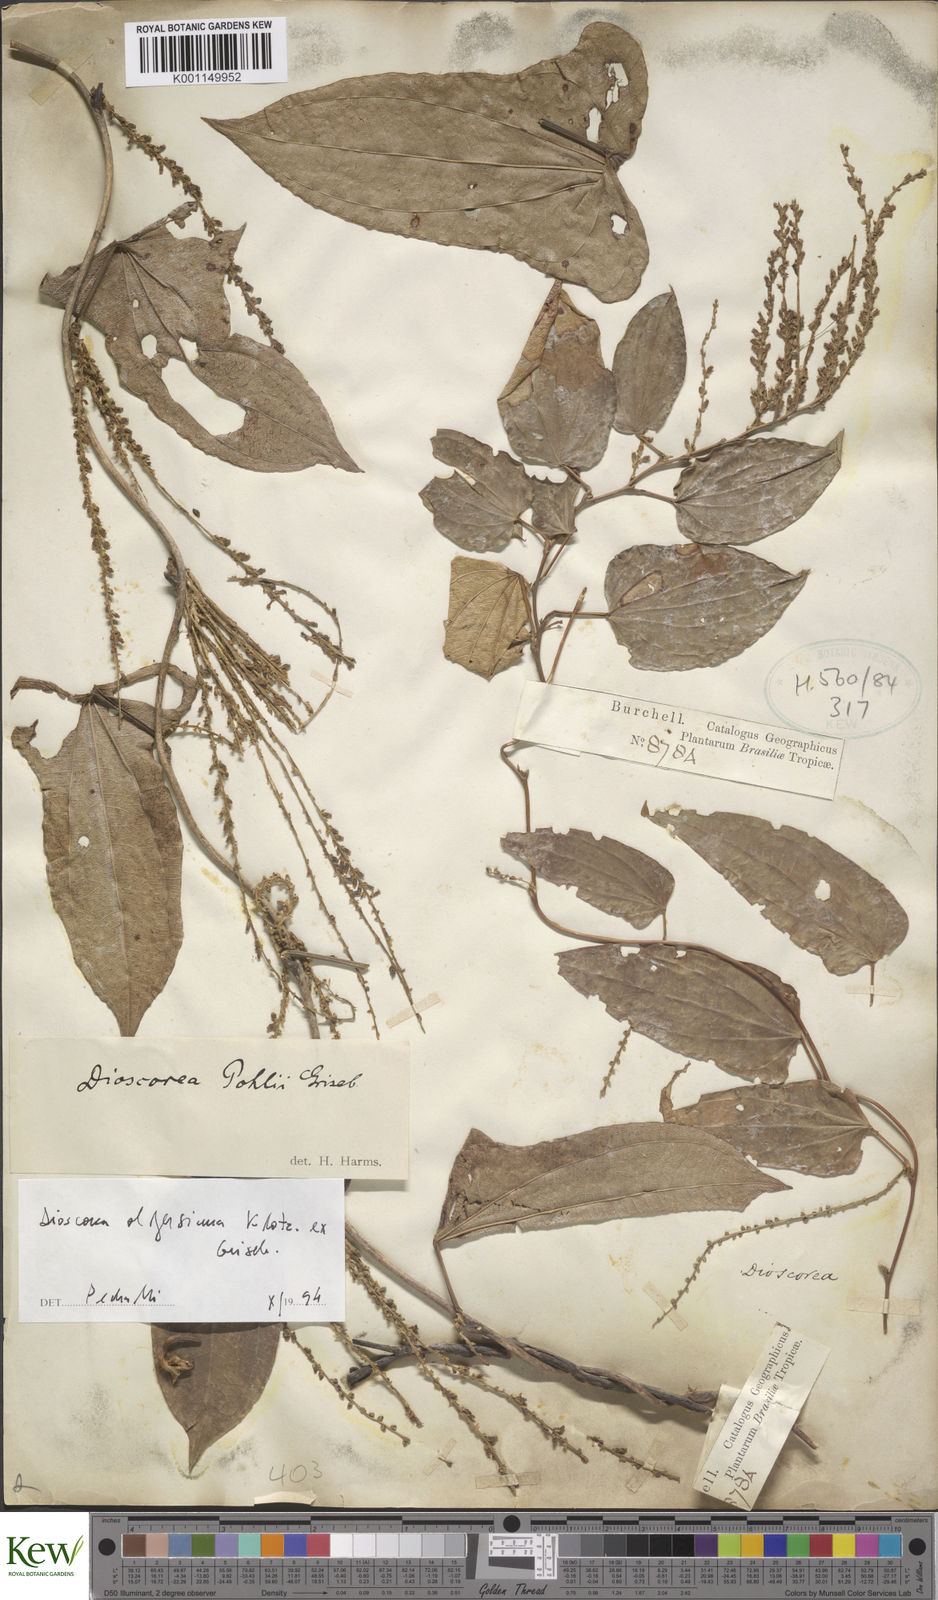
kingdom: Plantae
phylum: Tracheophyta
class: Liliopsida
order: Dioscoreales
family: Dioscoreaceae
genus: Dioscorea
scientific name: Dioscorea pohlii
